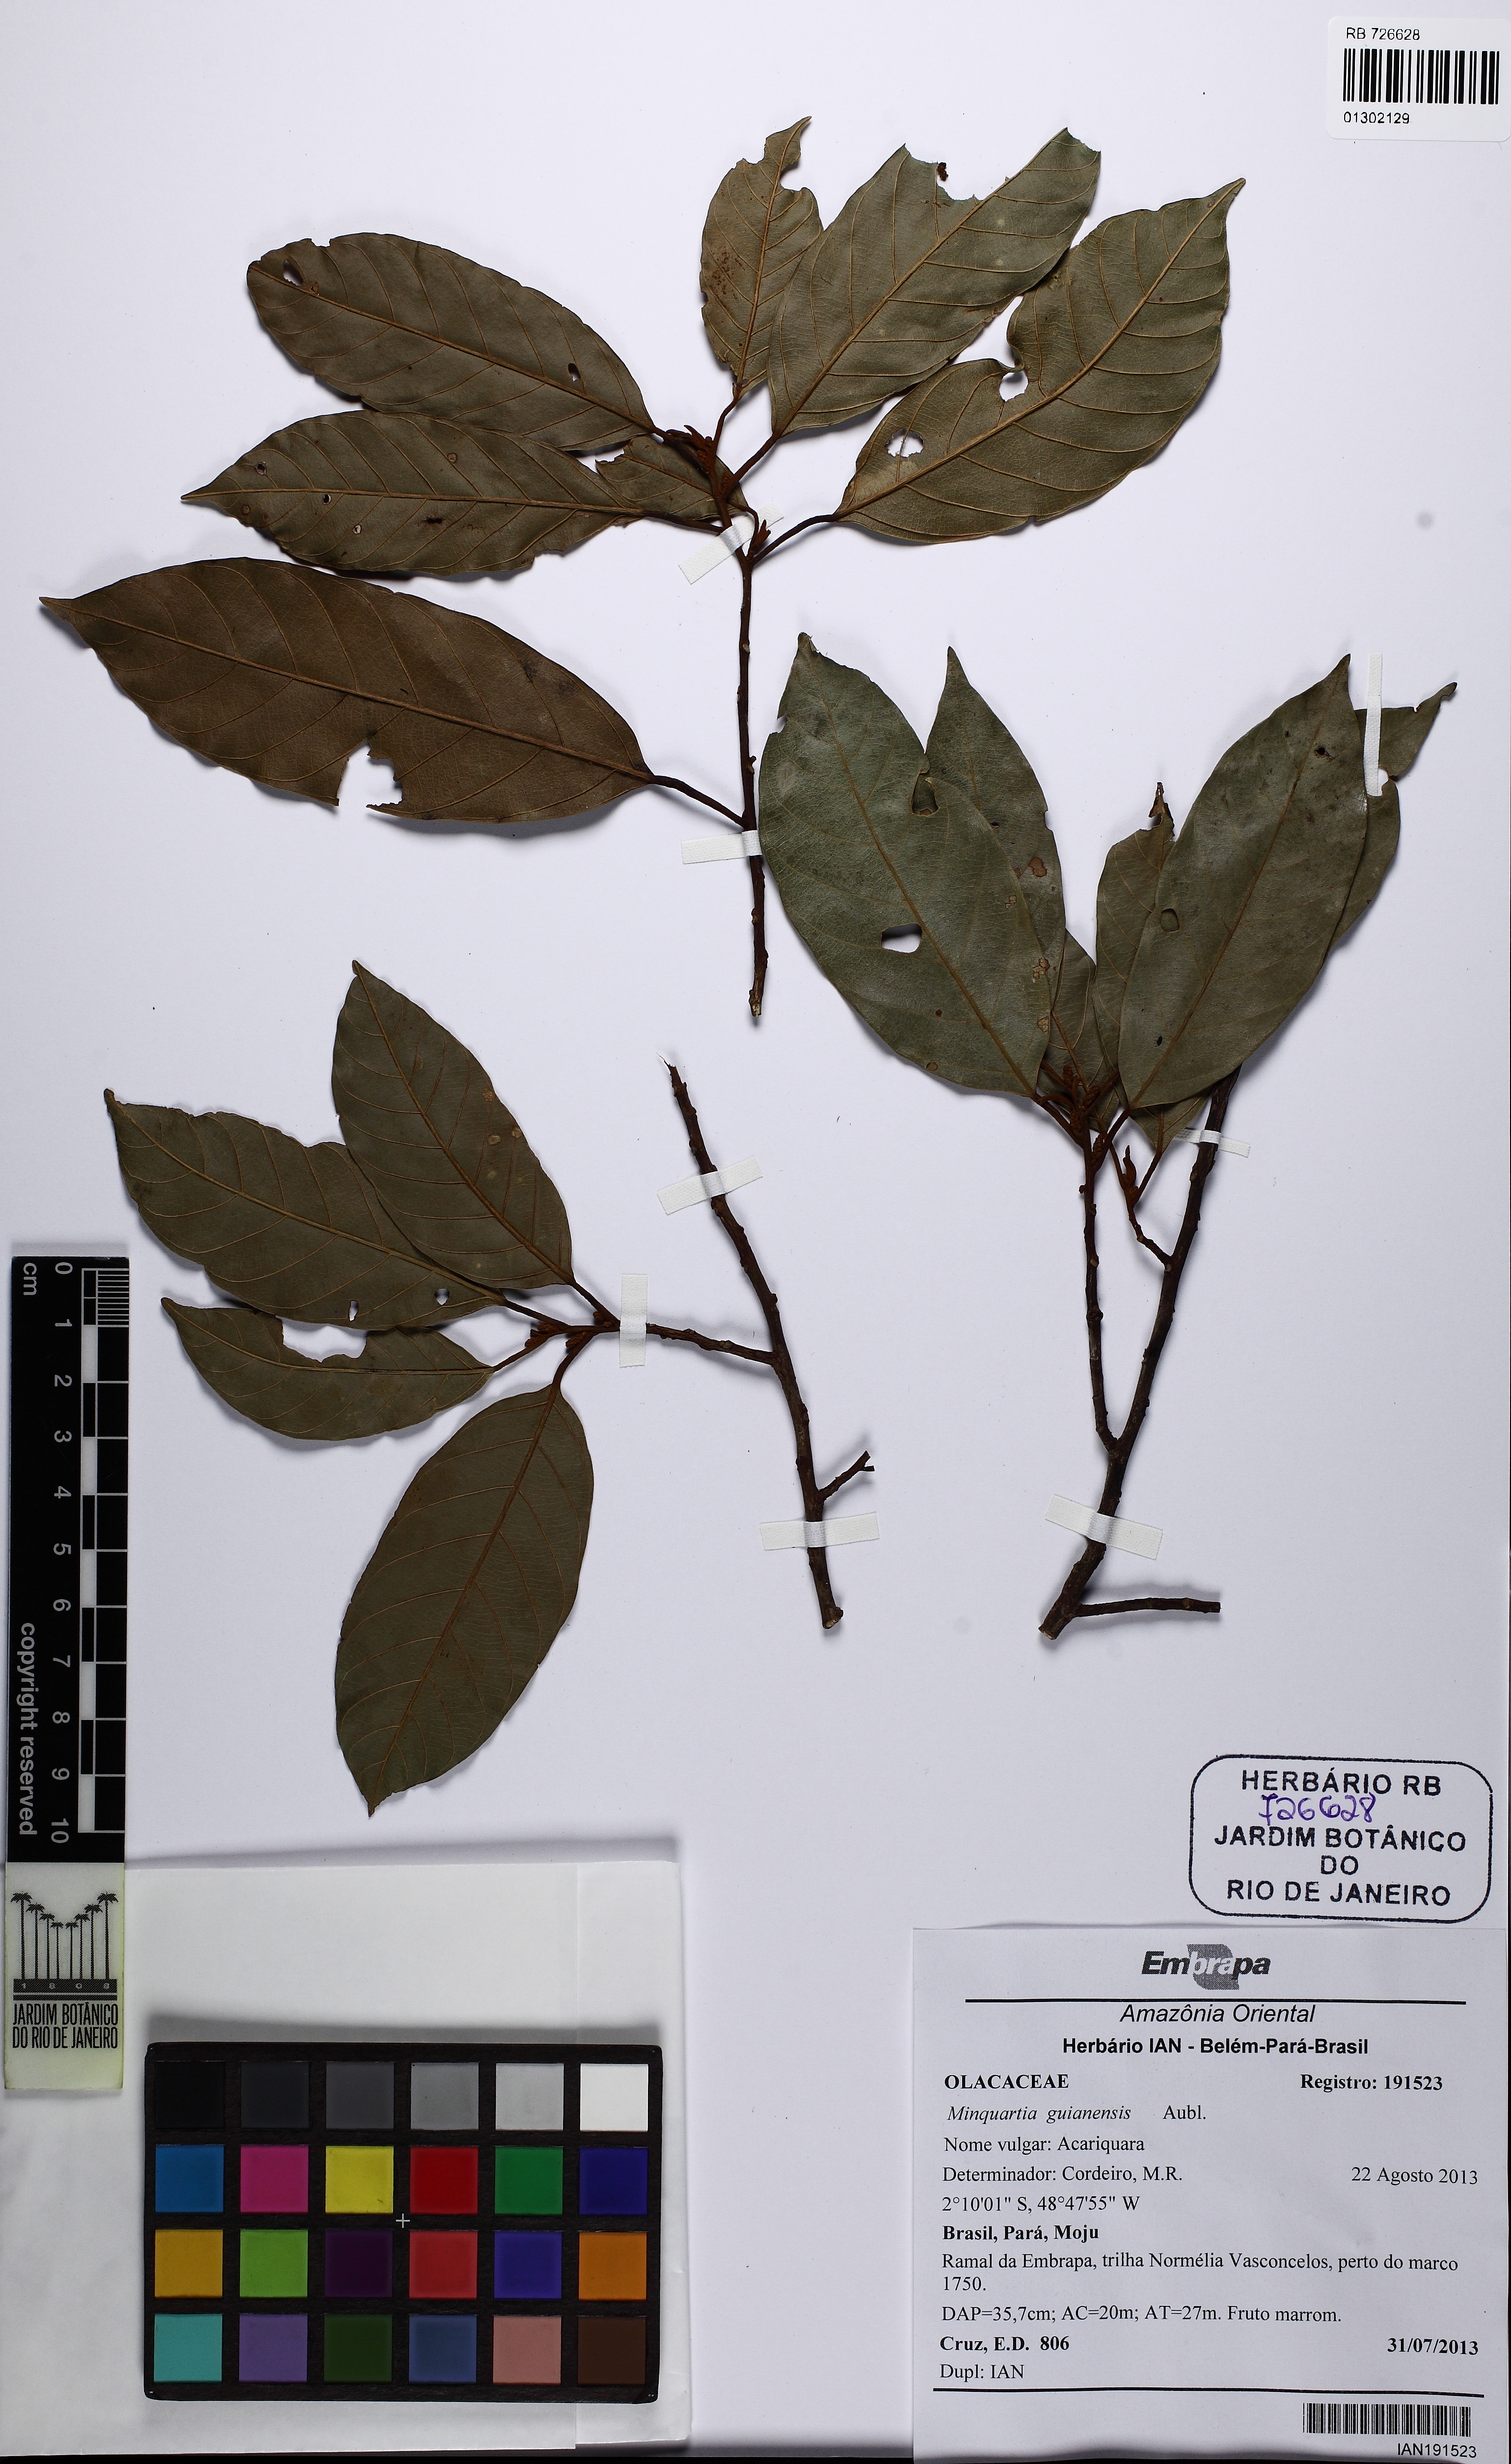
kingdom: Plantae
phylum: Tracheophyta
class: Magnoliopsida
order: Santalales
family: Coulaceae
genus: Minquartia
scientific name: Minquartia guianensis
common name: Black manwood
